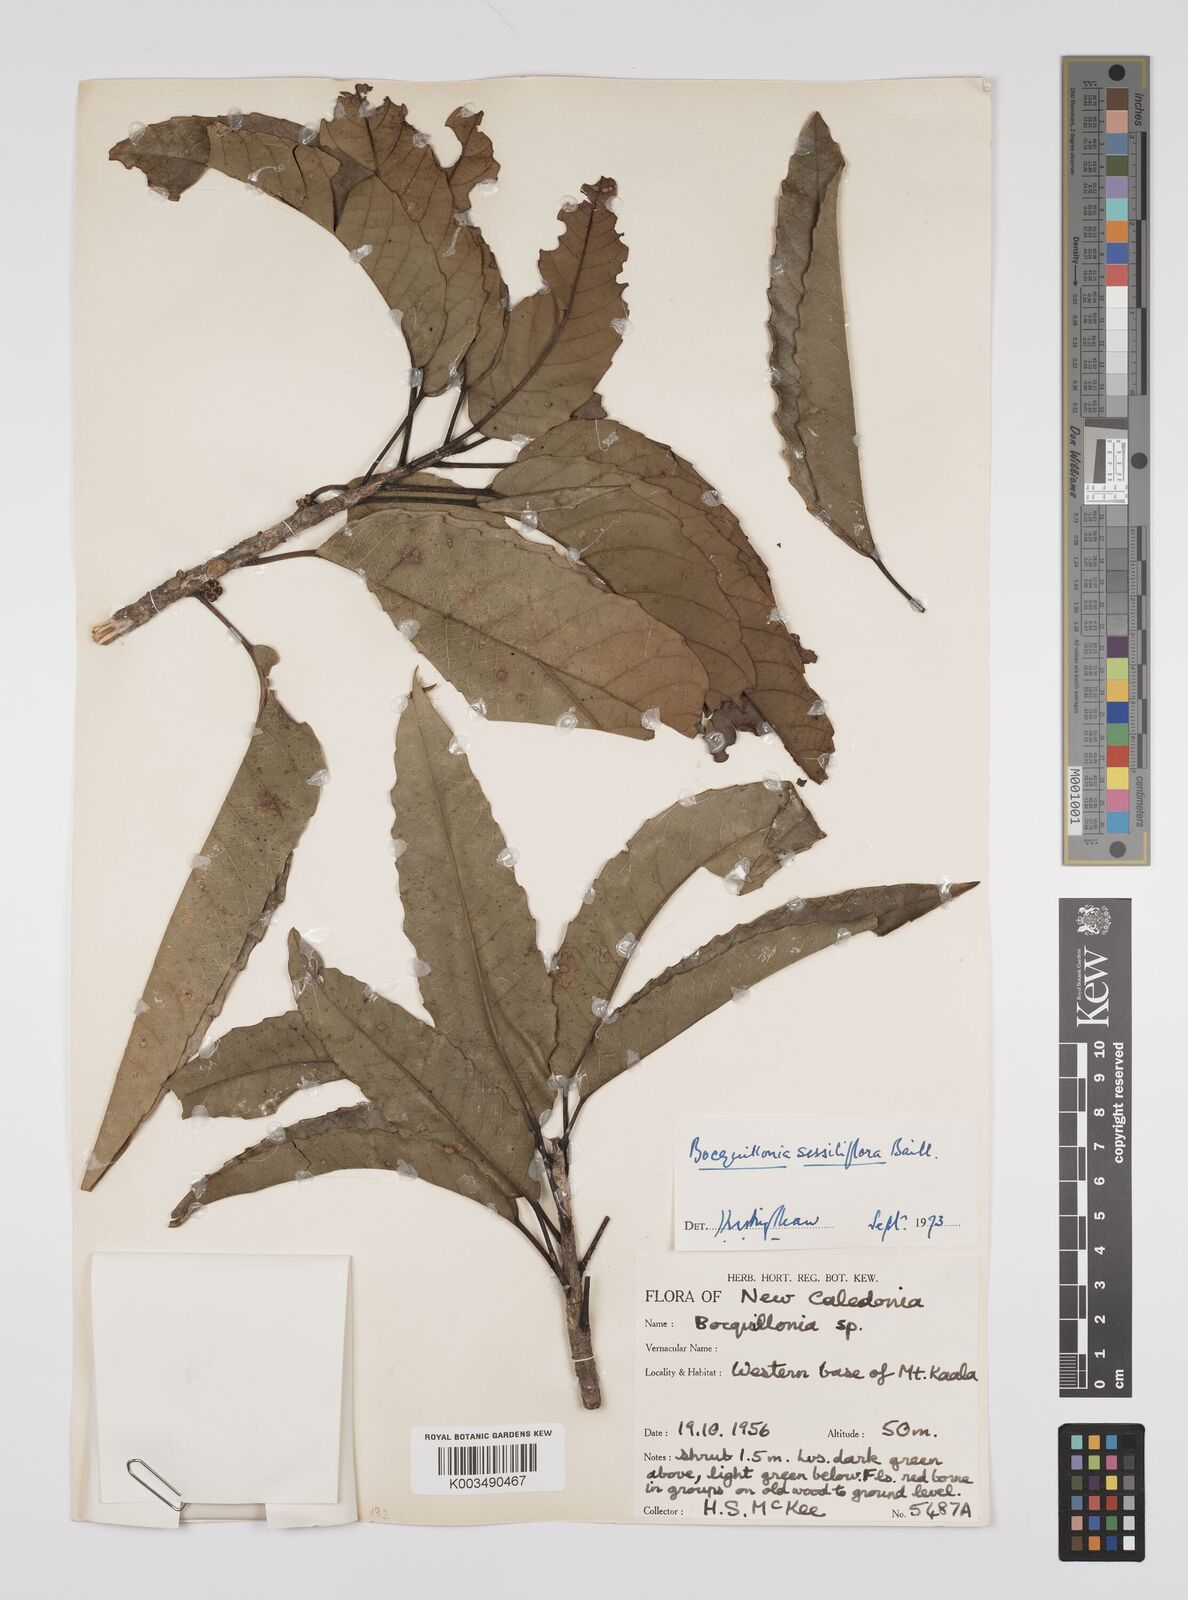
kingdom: Plantae
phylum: Tracheophyta
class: Magnoliopsida
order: Malpighiales
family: Euphorbiaceae
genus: Bocquillonia
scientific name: Bocquillonia sessiliflora
